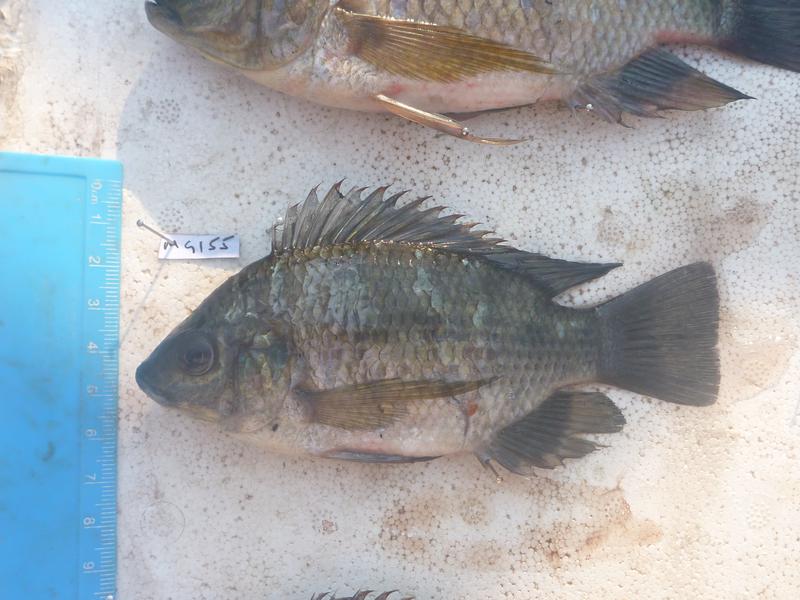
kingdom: Animalia
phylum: Chordata
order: Perciformes
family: Cichlidae
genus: Oreochromis
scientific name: Oreochromis upembae
